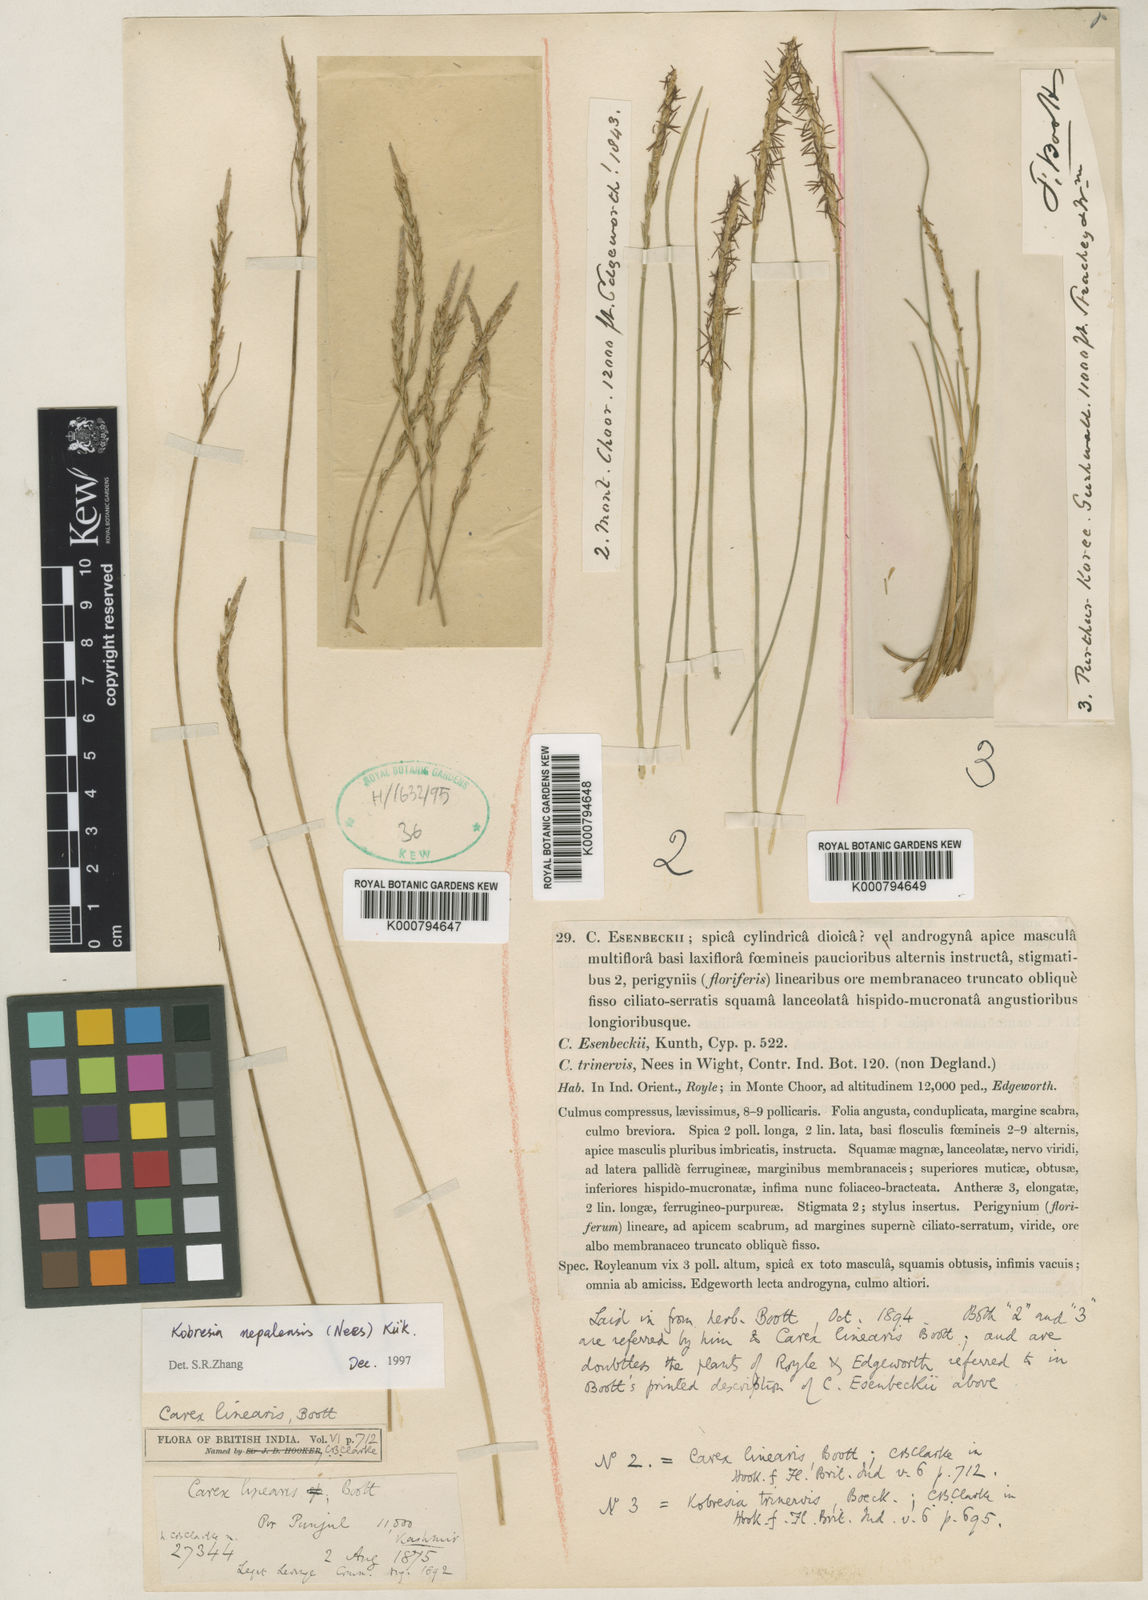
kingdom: Plantae
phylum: Tracheophyta
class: Liliopsida
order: Poales
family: Cyperaceae
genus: Carex
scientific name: Carex
